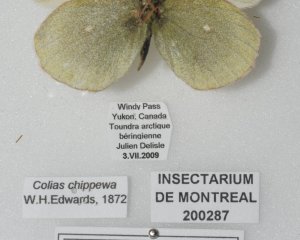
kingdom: Animalia
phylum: Arthropoda
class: Insecta
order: Lepidoptera
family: Pieridae
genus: Colias
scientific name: Colias palaeno
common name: Chippewa Sulphur
